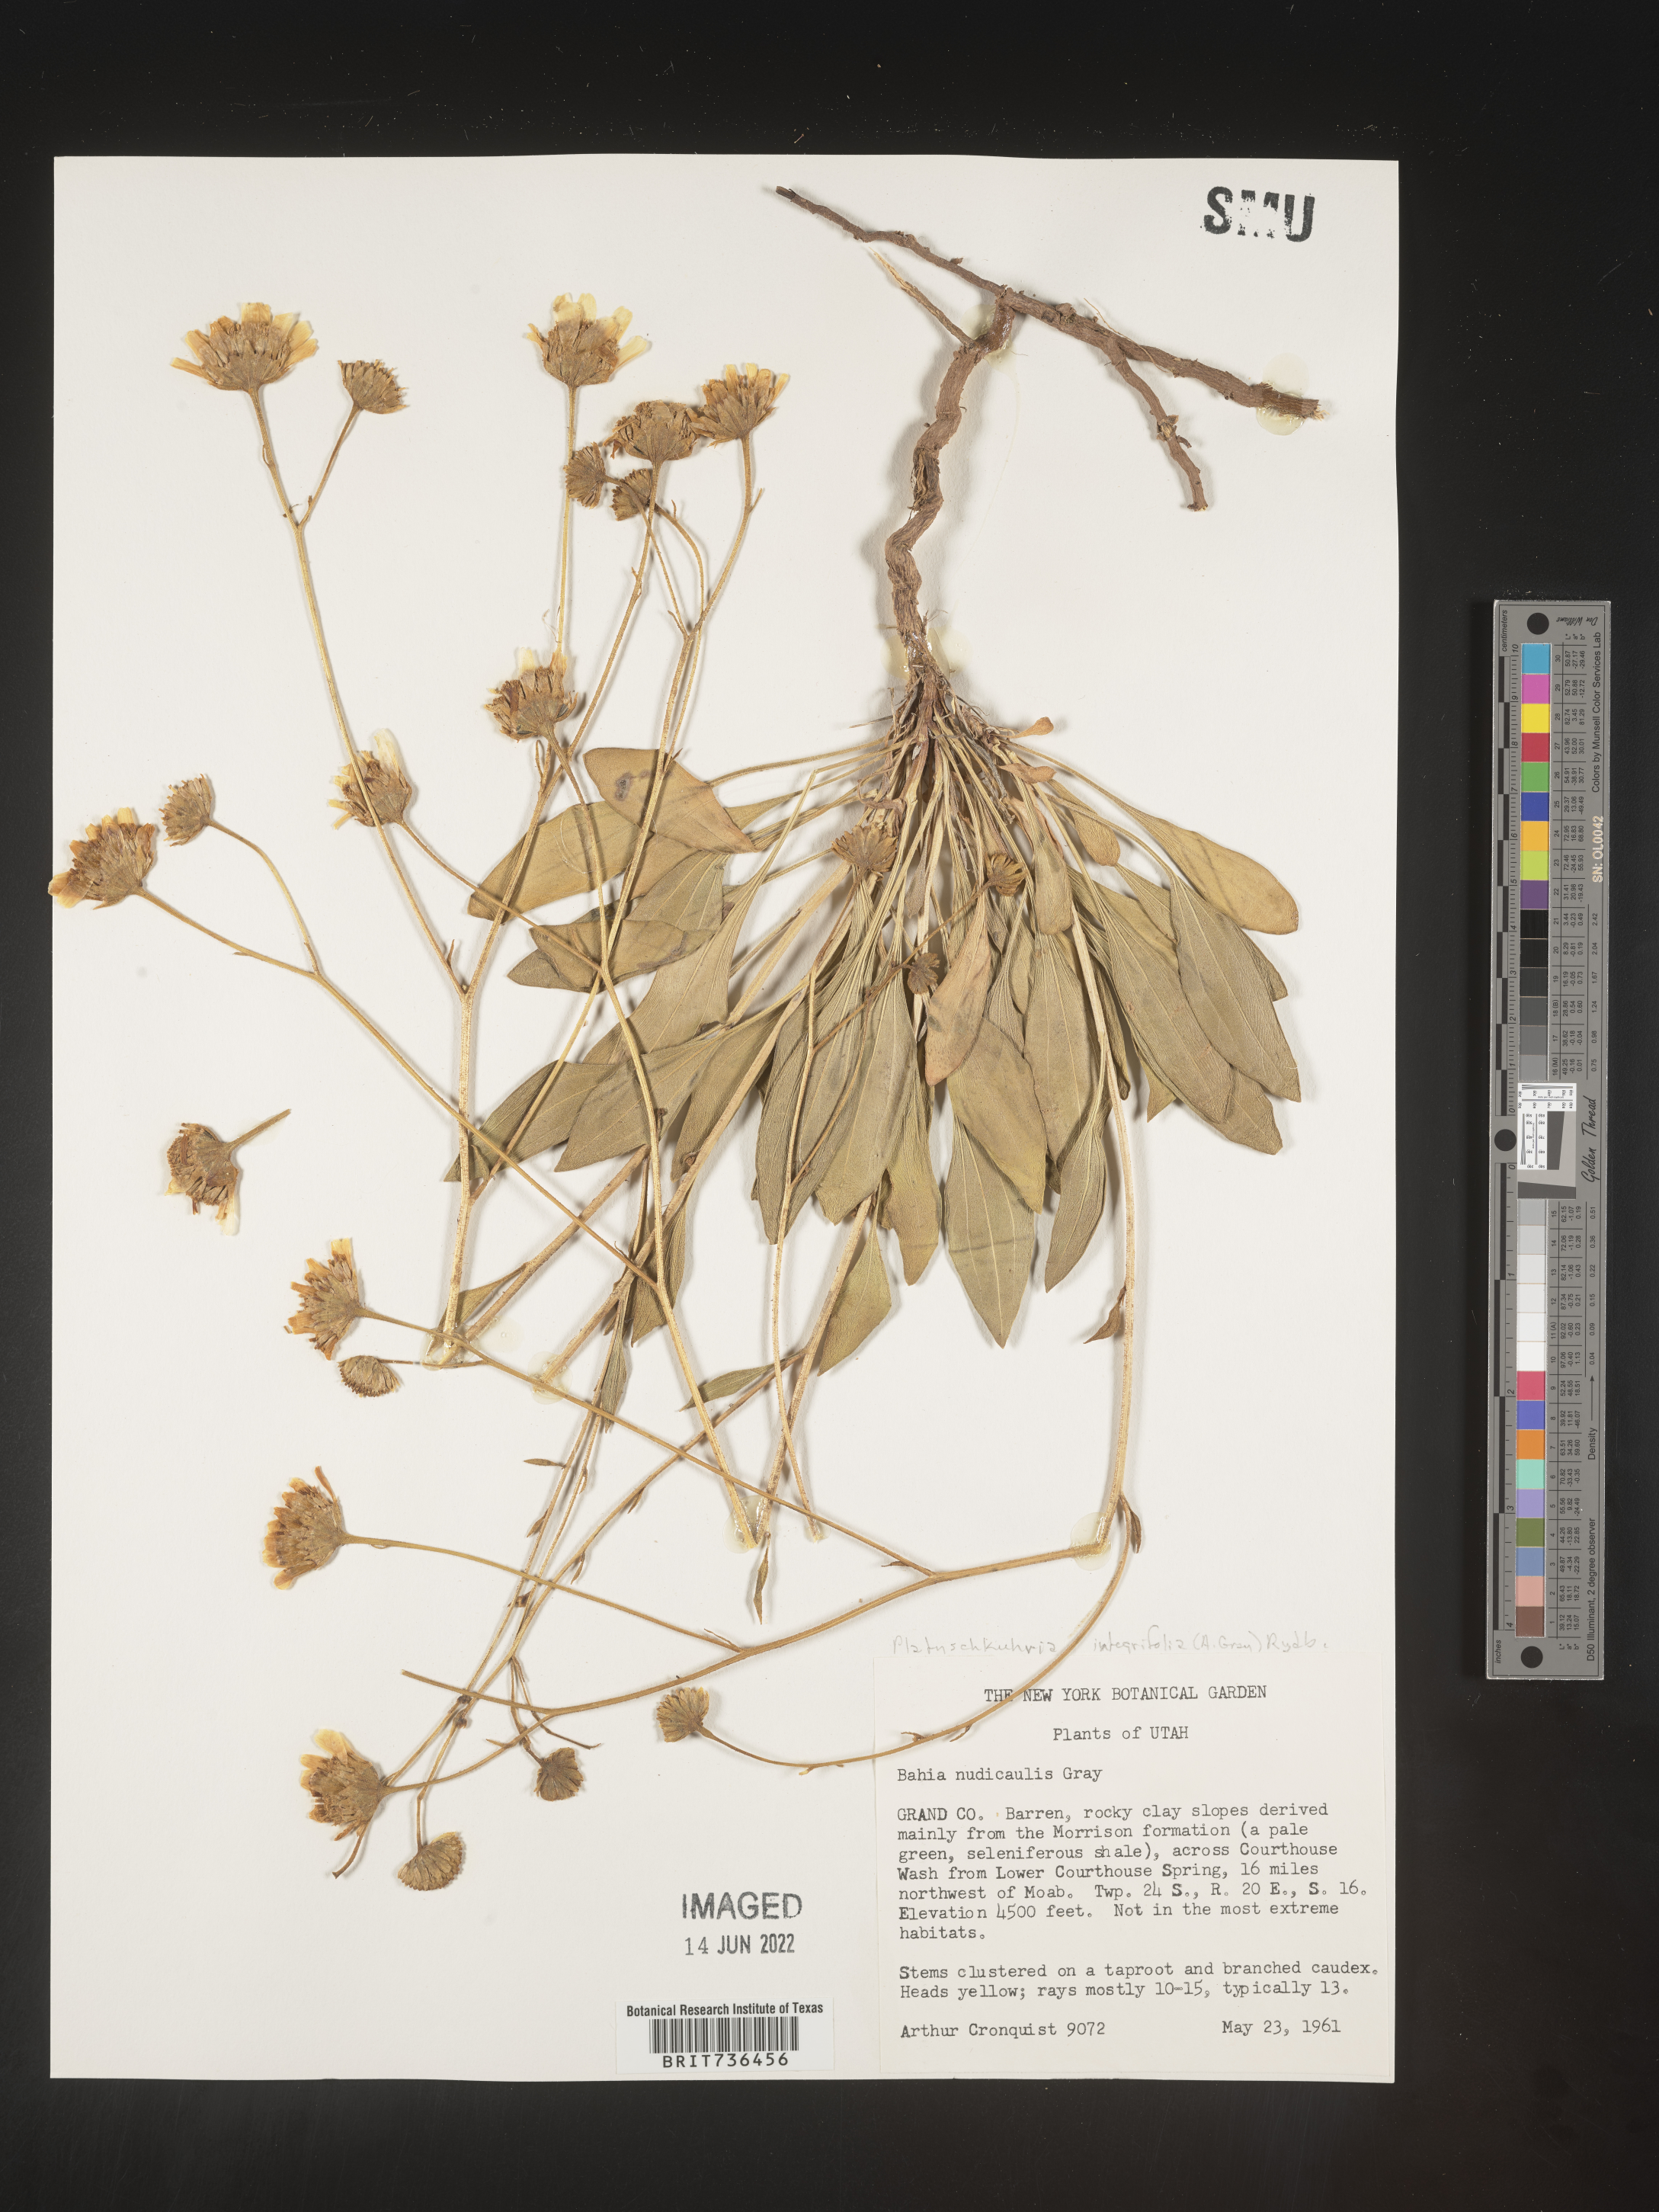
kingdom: Plantae
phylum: Tracheophyta
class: Magnoliopsida
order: Asterales
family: Asteraceae
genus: Platyschkuhria
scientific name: Platyschkuhria
